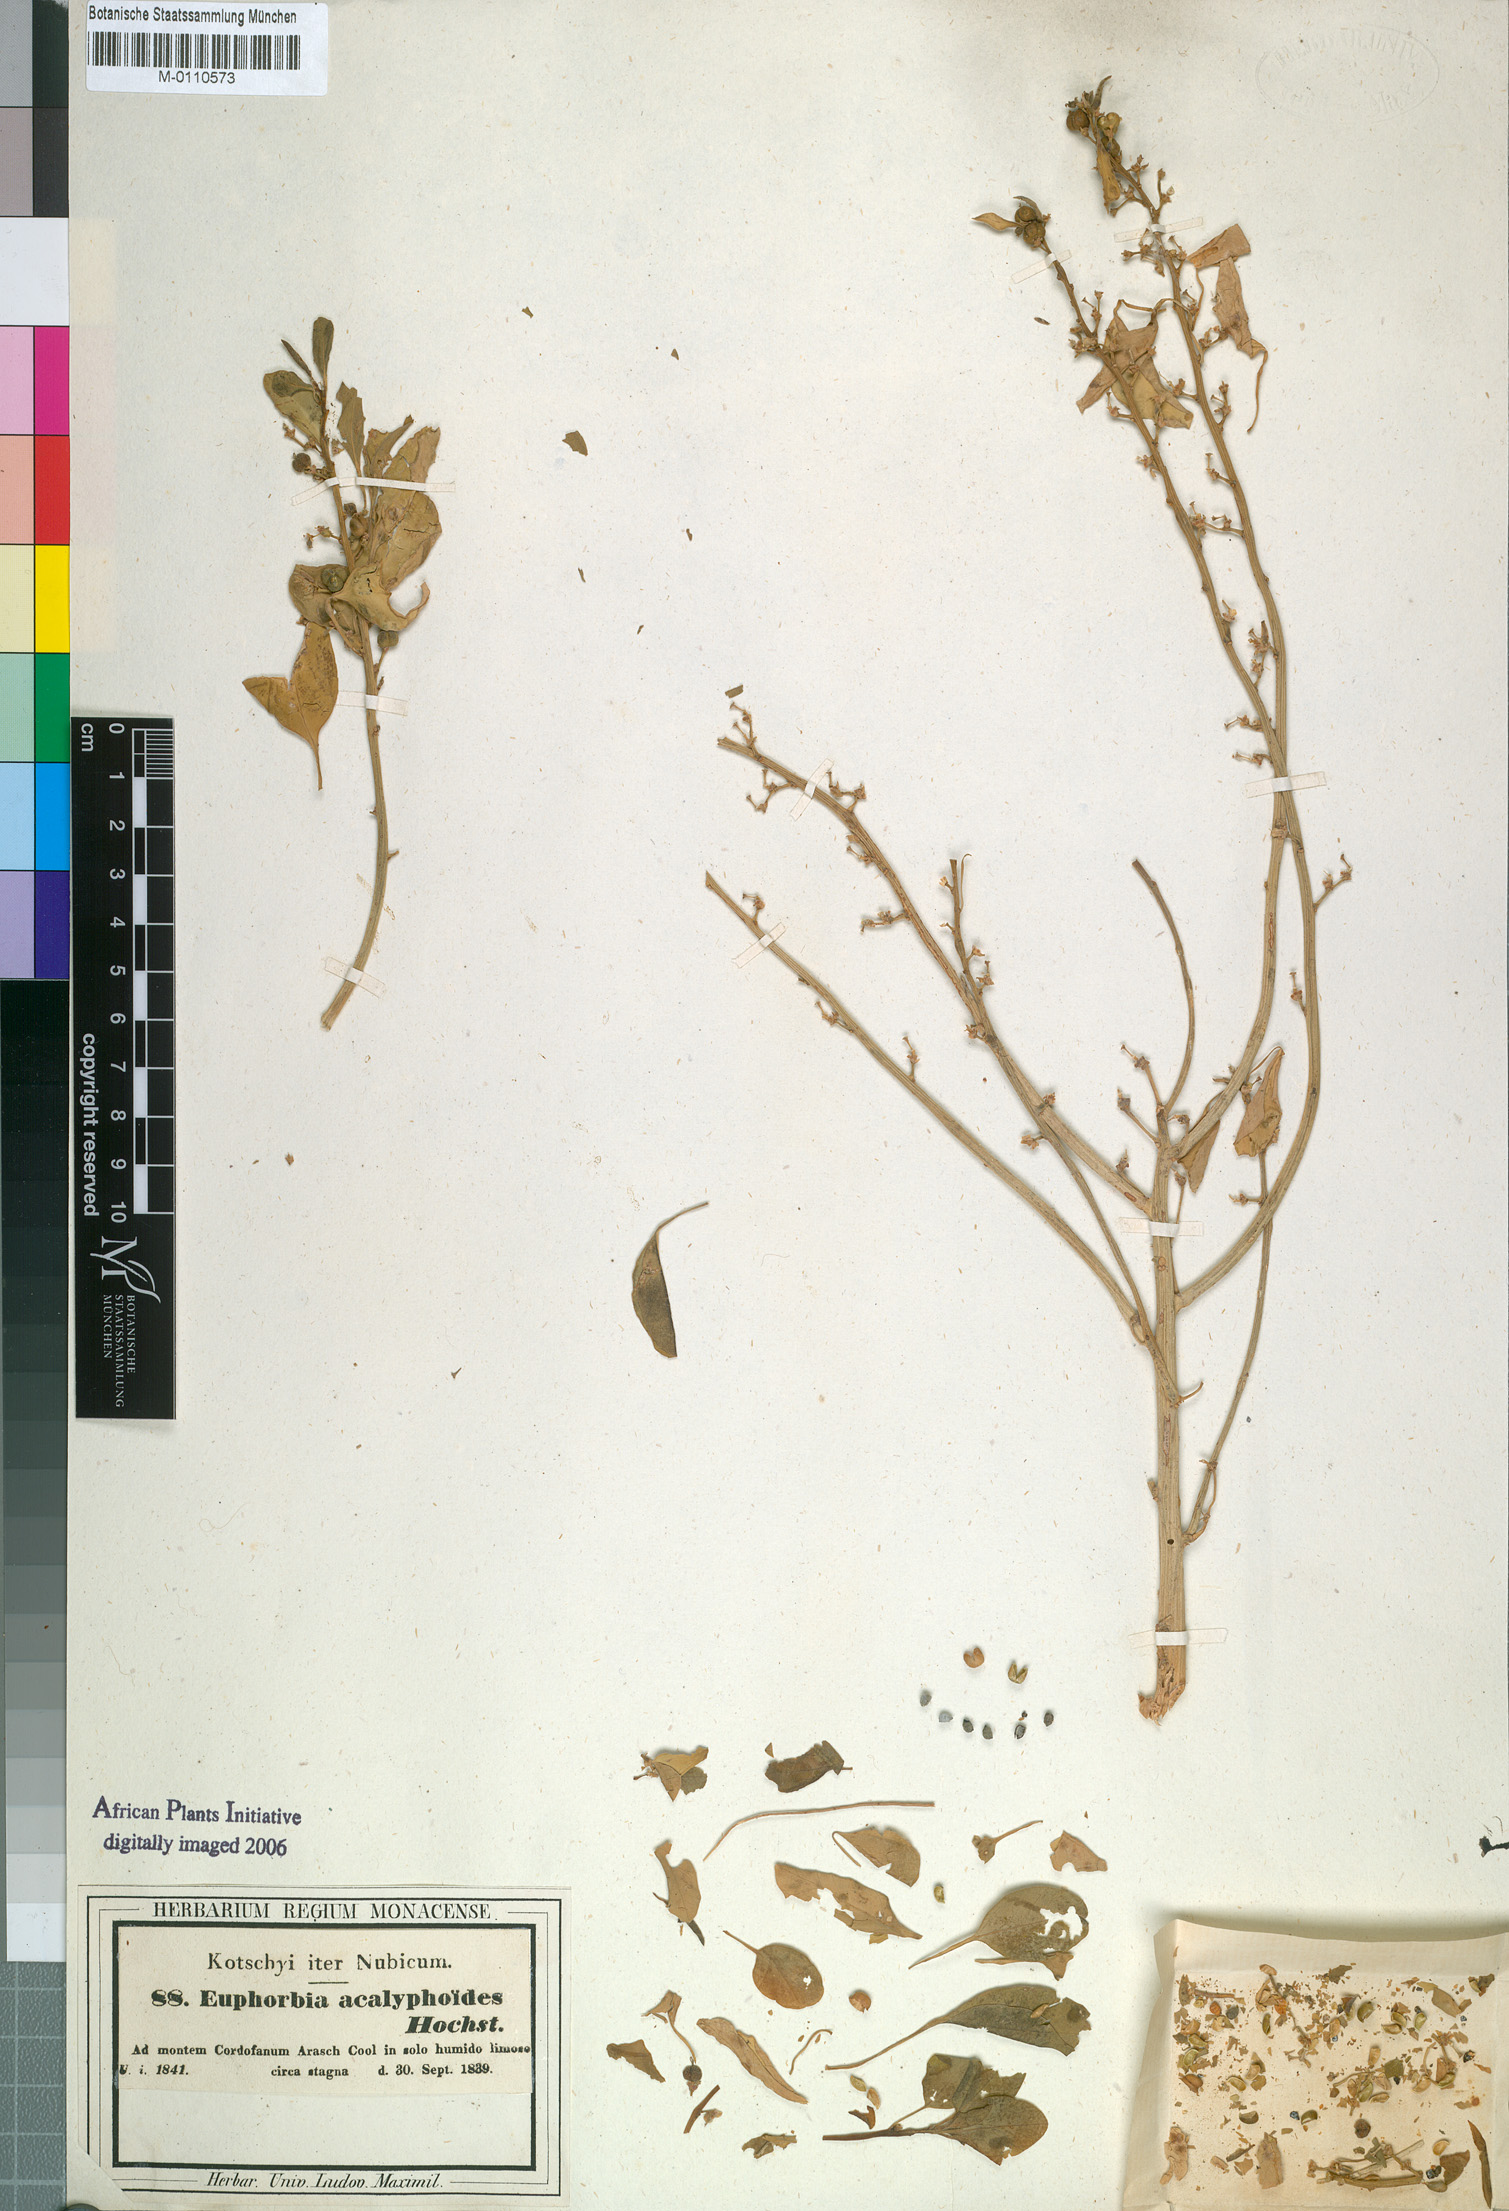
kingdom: Plantae
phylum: Tracheophyta
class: Magnoliopsida
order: Malpighiales
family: Euphorbiaceae
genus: Euphorbia
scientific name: Euphorbia acalyphoides
